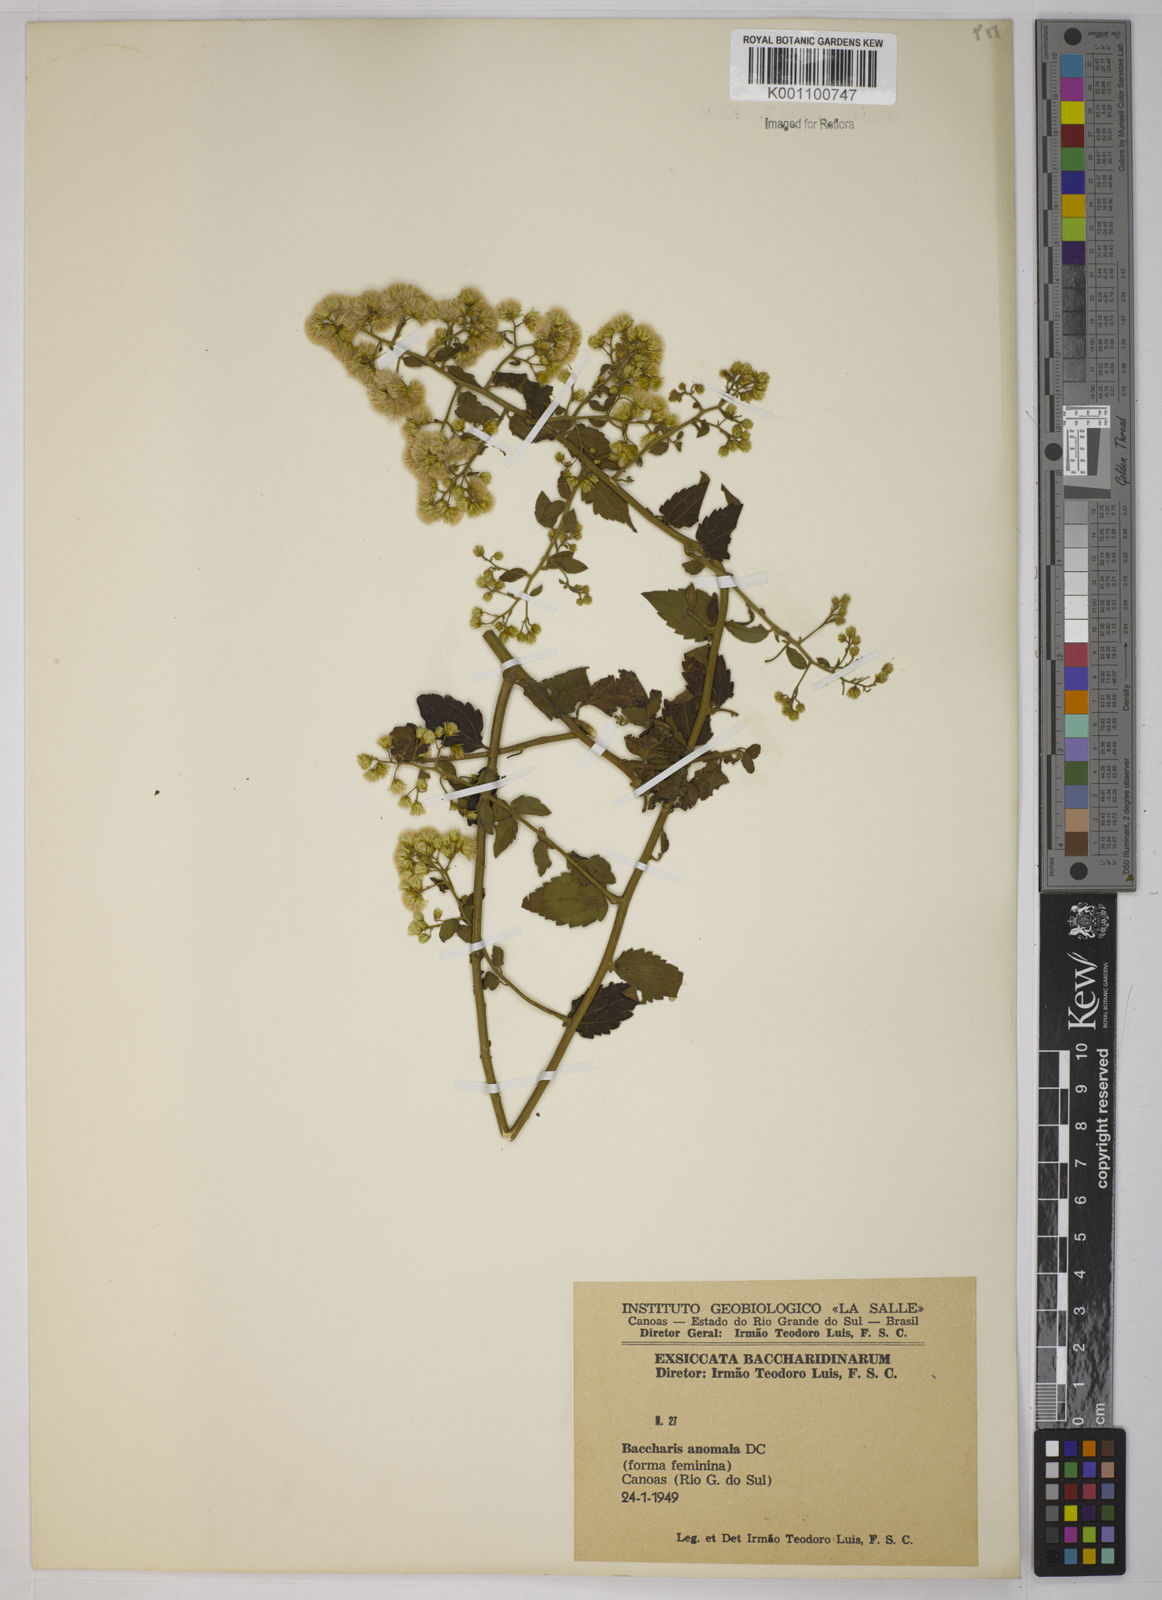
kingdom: Plantae
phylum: Tracheophyta
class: Magnoliopsida
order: Asterales
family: Asteraceae
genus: Baccharis
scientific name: Baccharis anomala
